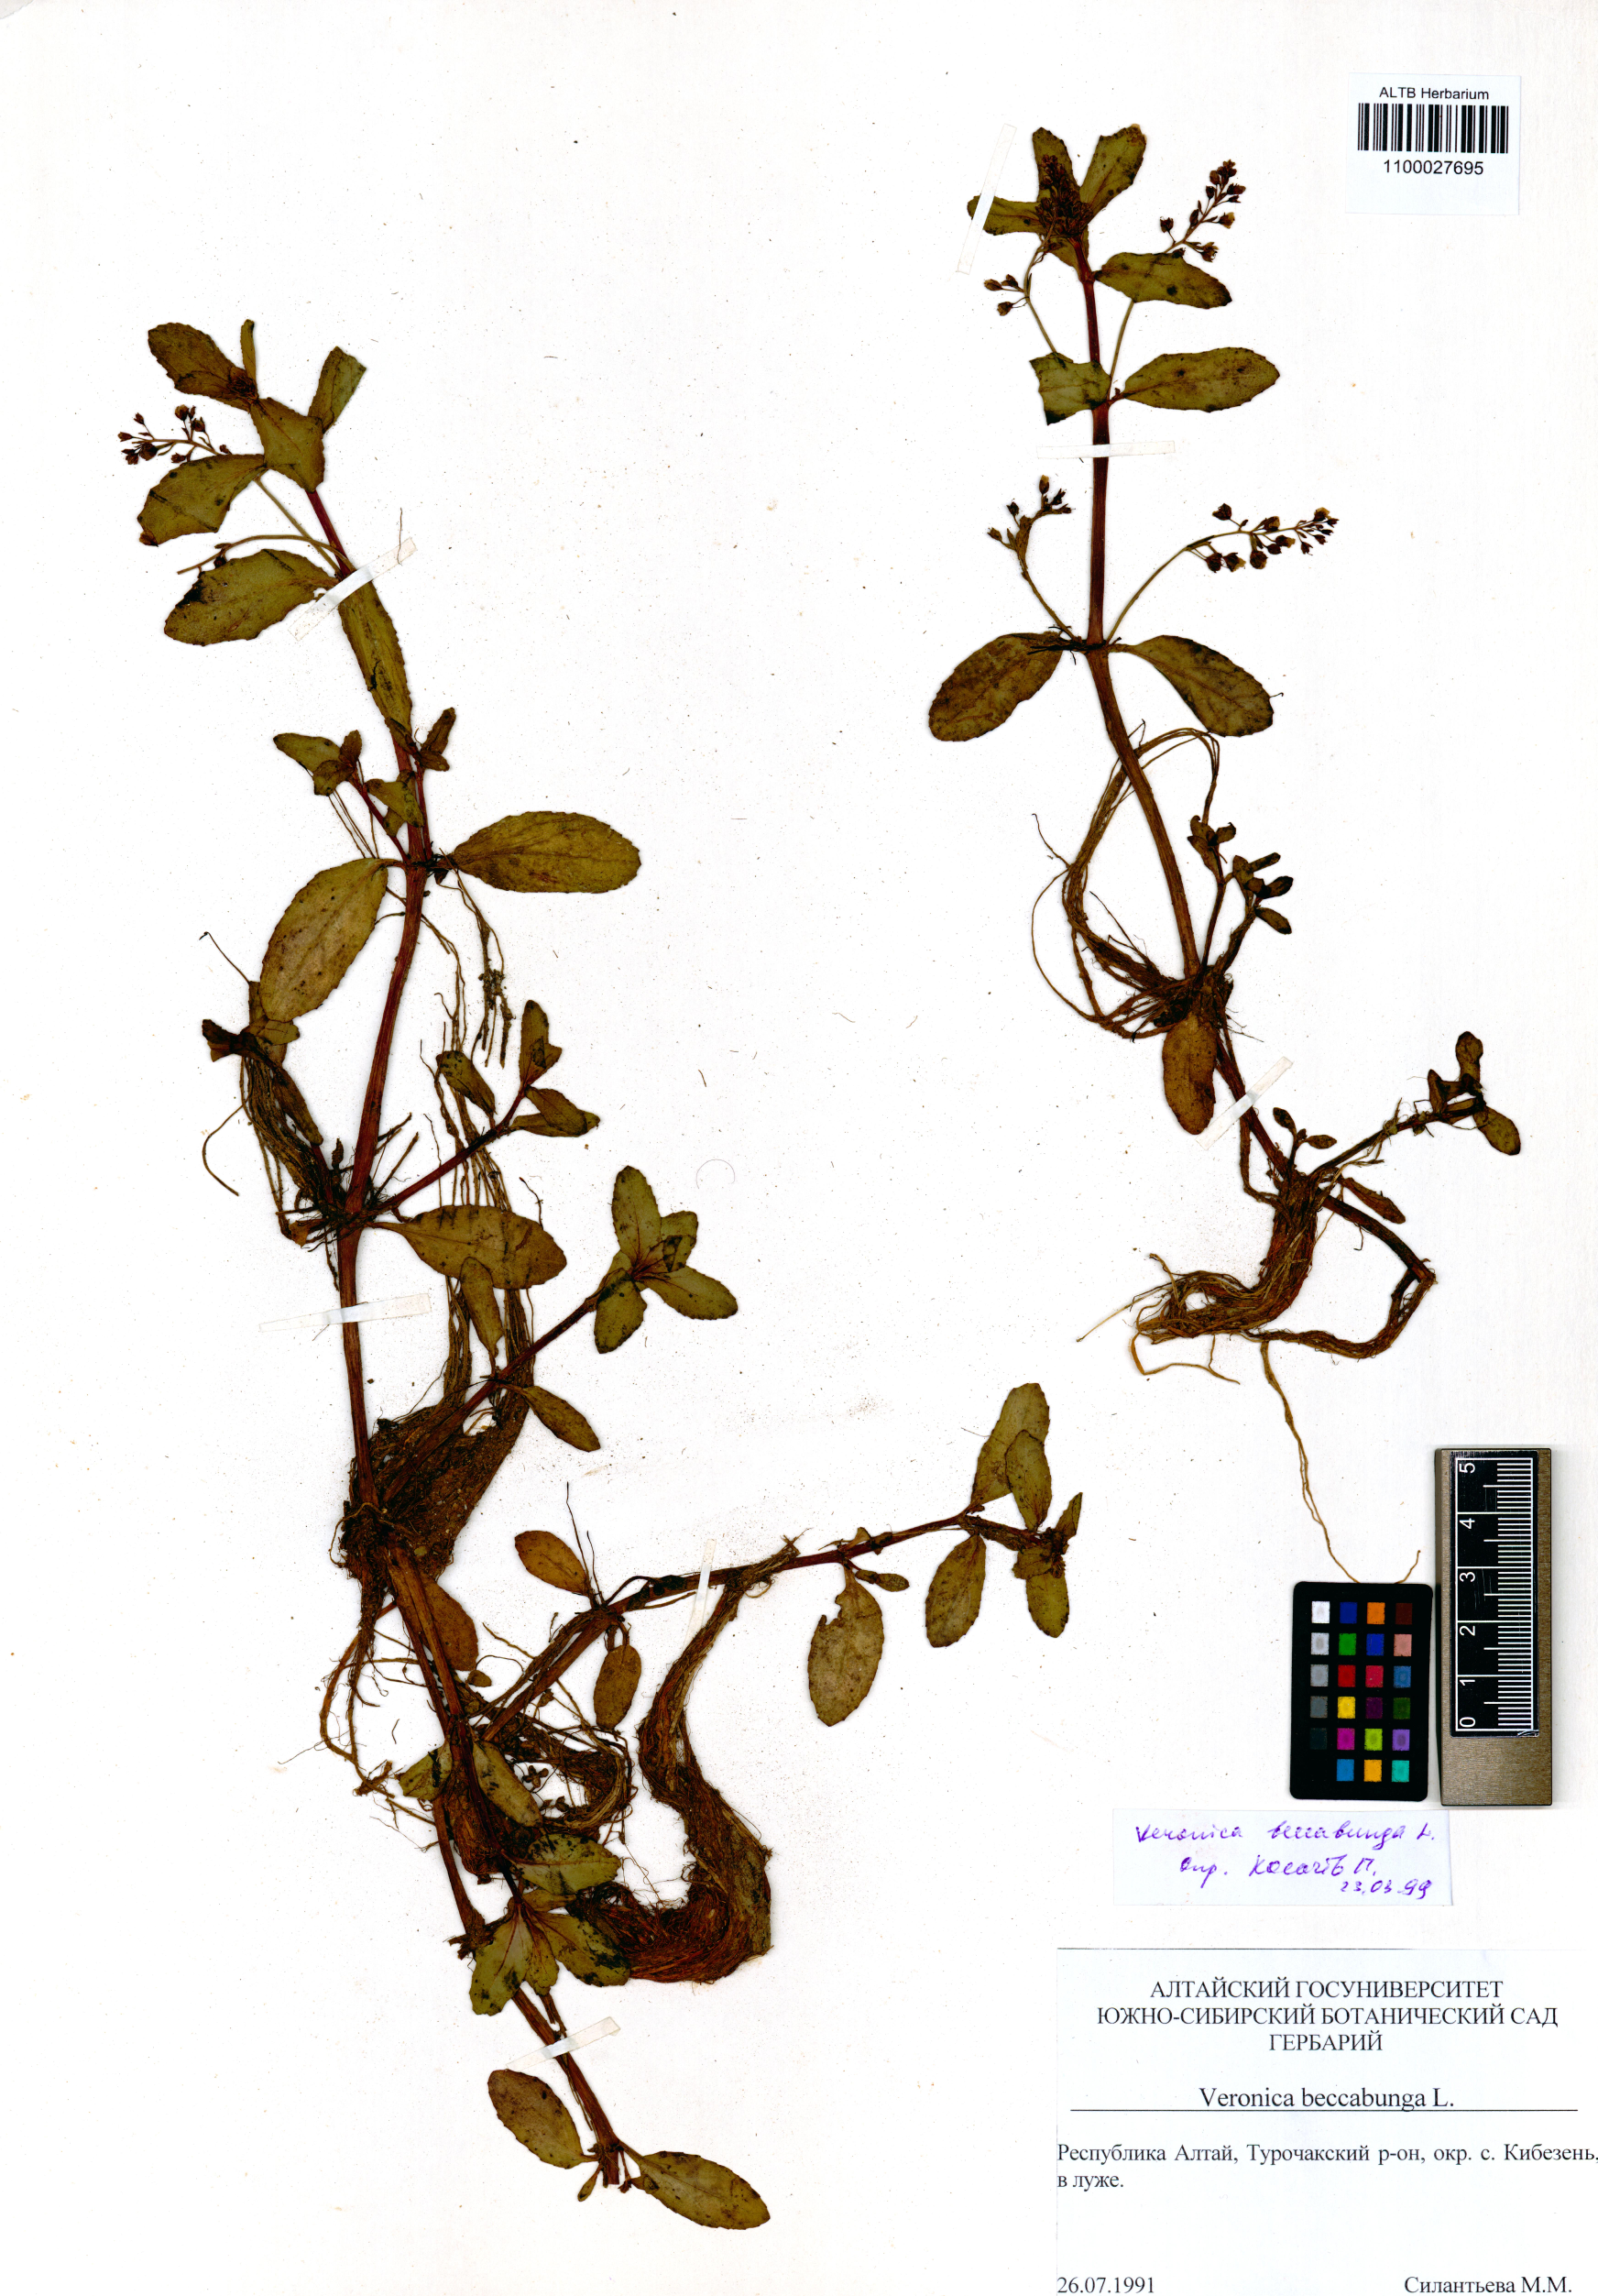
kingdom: Plantae
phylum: Tracheophyta
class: Magnoliopsida
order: Lamiales
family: Plantaginaceae
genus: Veronica
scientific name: Veronica beccabunga
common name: Brooklime
